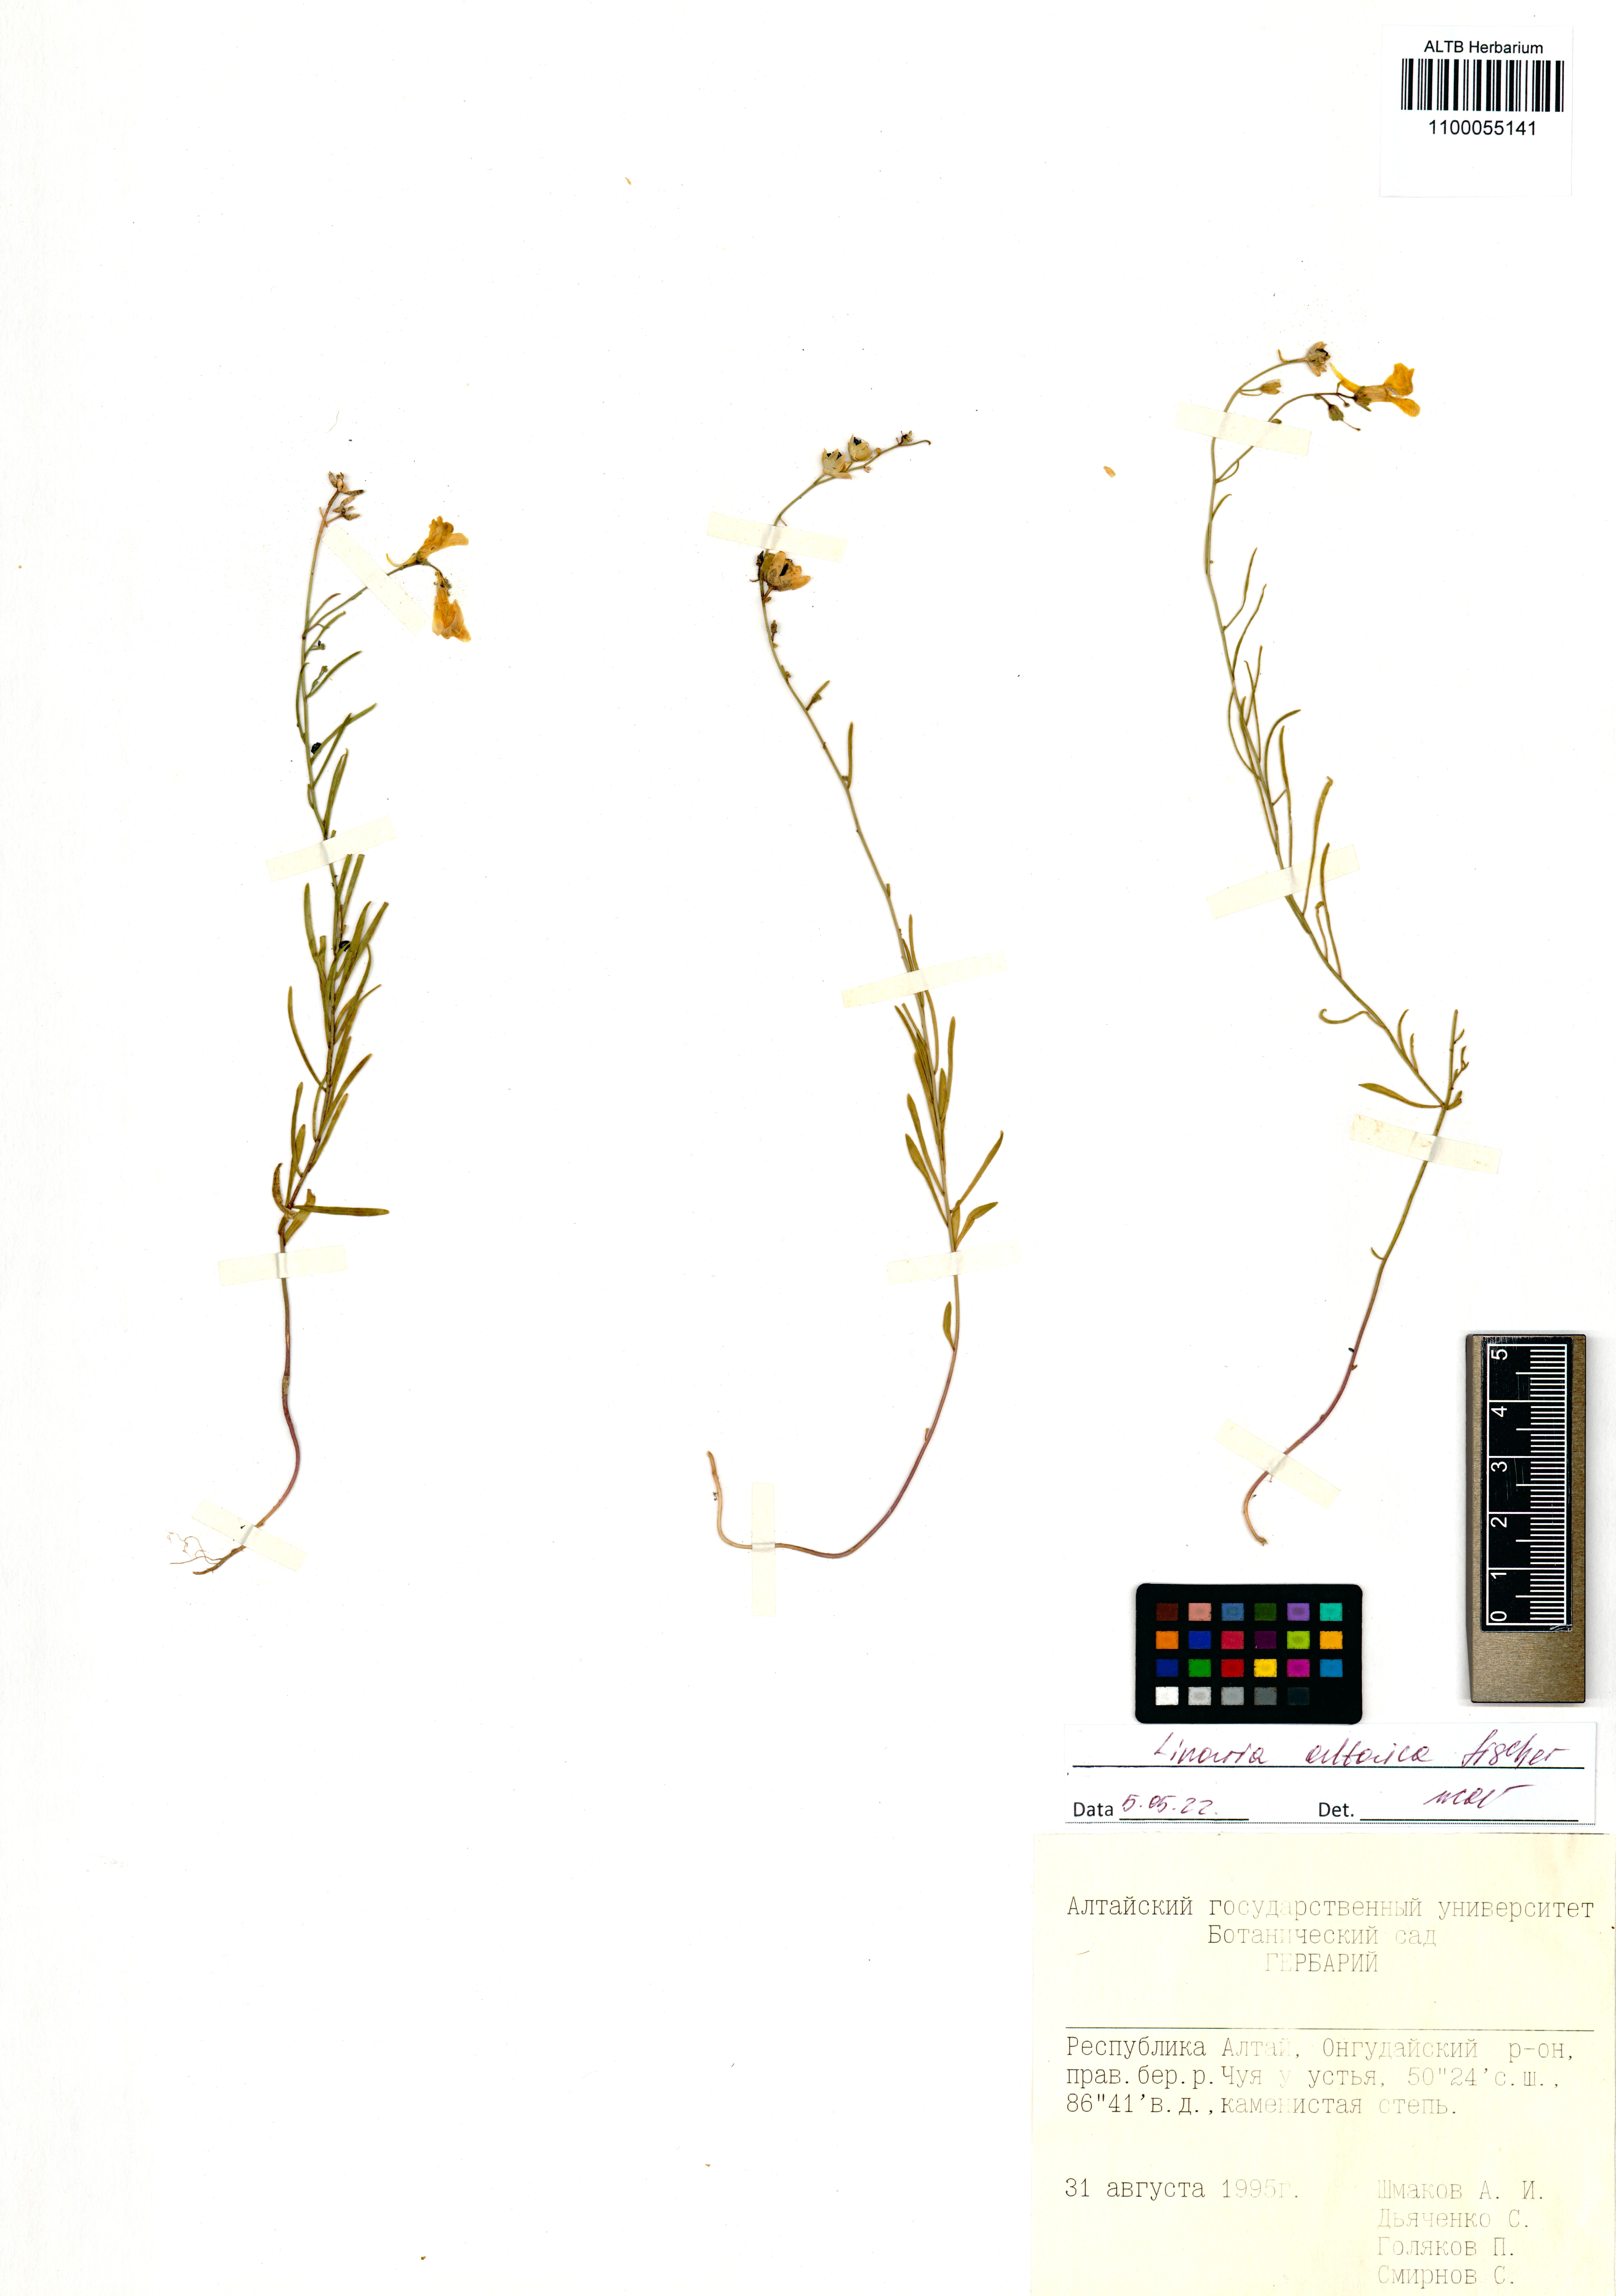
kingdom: Plantae
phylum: Tracheophyta
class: Magnoliopsida
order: Lamiales
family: Plantaginaceae
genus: Linaria
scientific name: Linaria altaica
